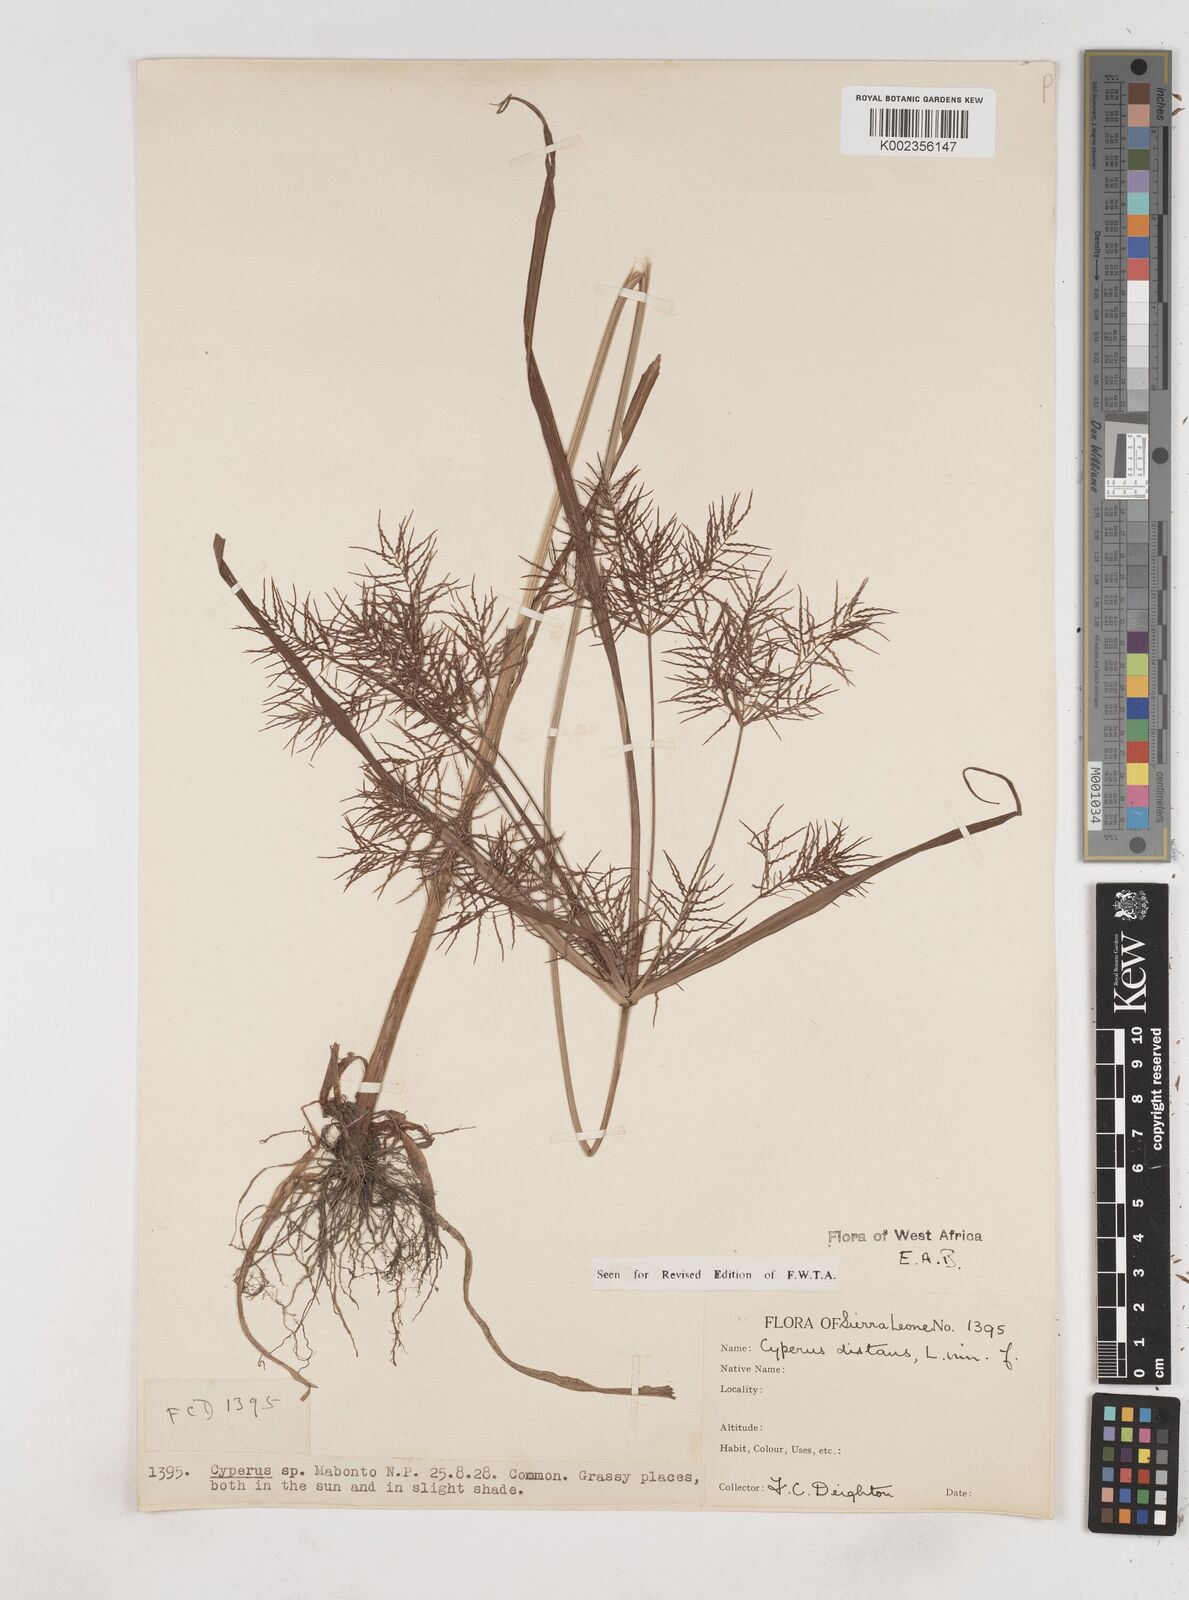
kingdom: Plantae
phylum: Tracheophyta
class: Liliopsida
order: Poales
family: Cyperaceae
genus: Cyperus
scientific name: Cyperus distans
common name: Slender cyperus
